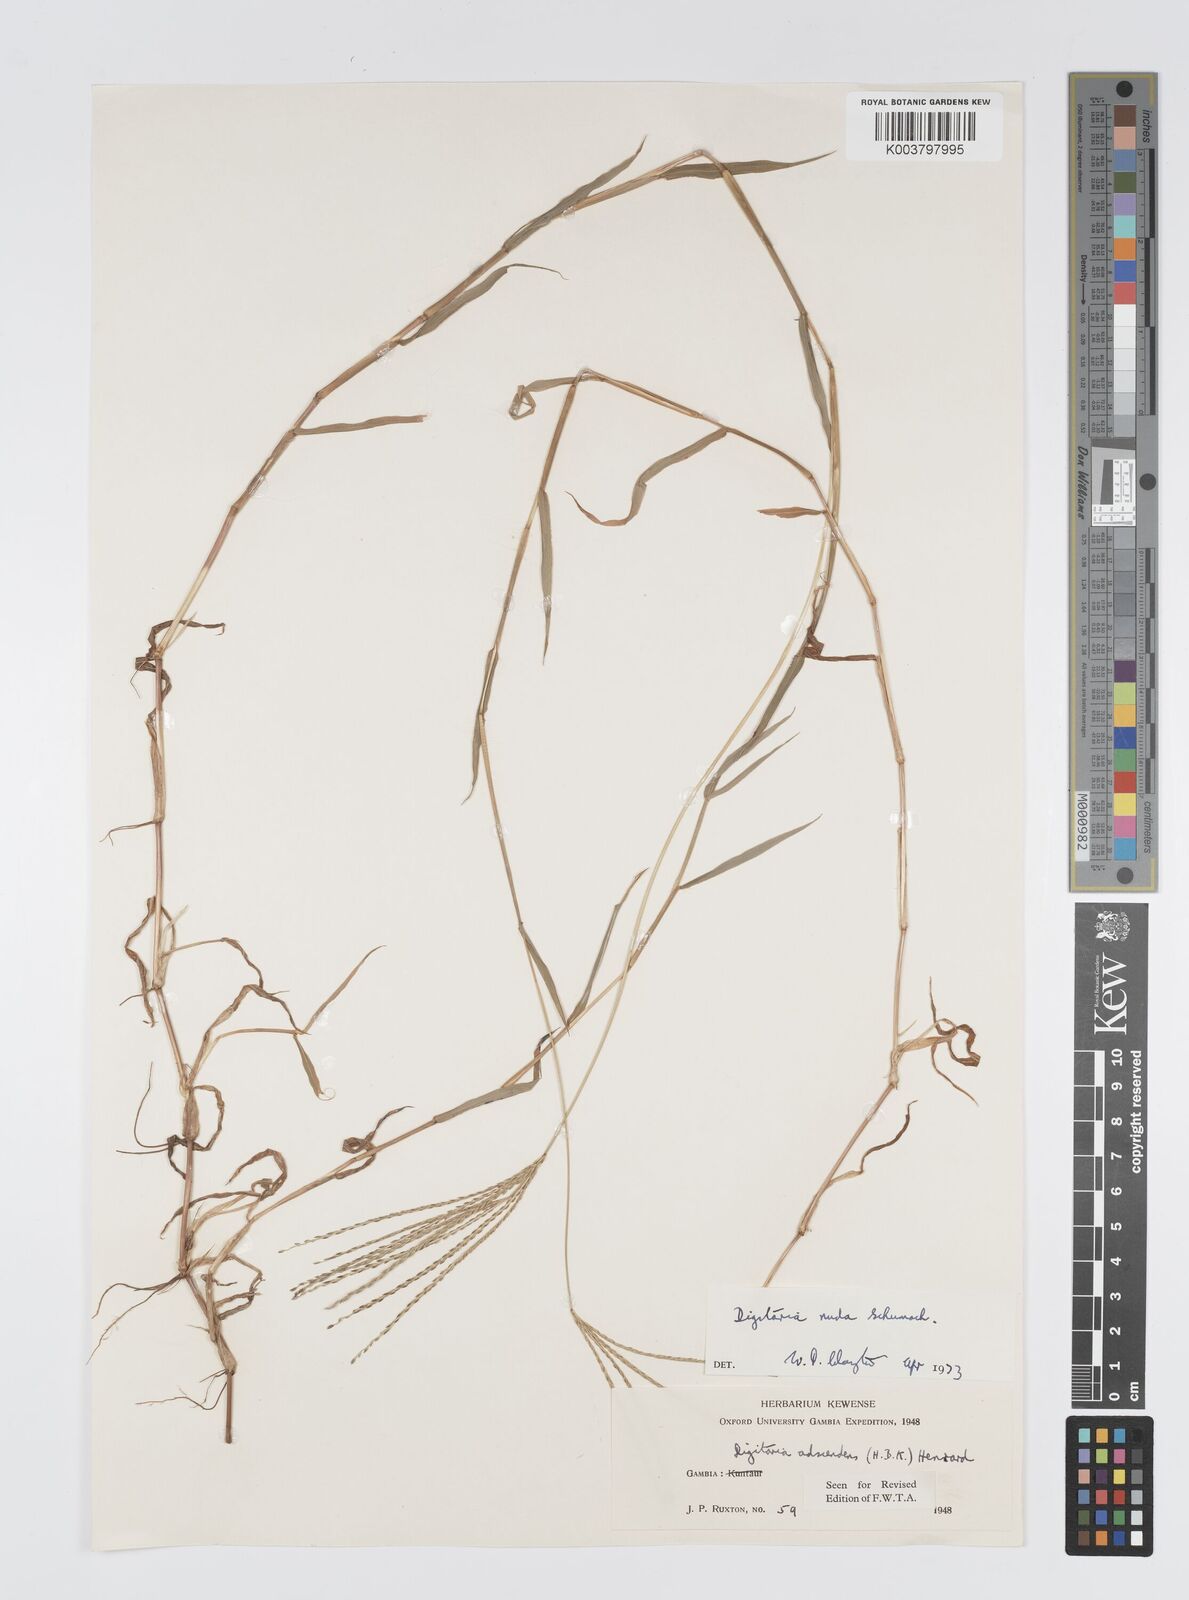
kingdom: Plantae
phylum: Tracheophyta
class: Liliopsida
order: Poales
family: Poaceae
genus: Digitaria
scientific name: Digitaria nuda
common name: Naked crabgrass
